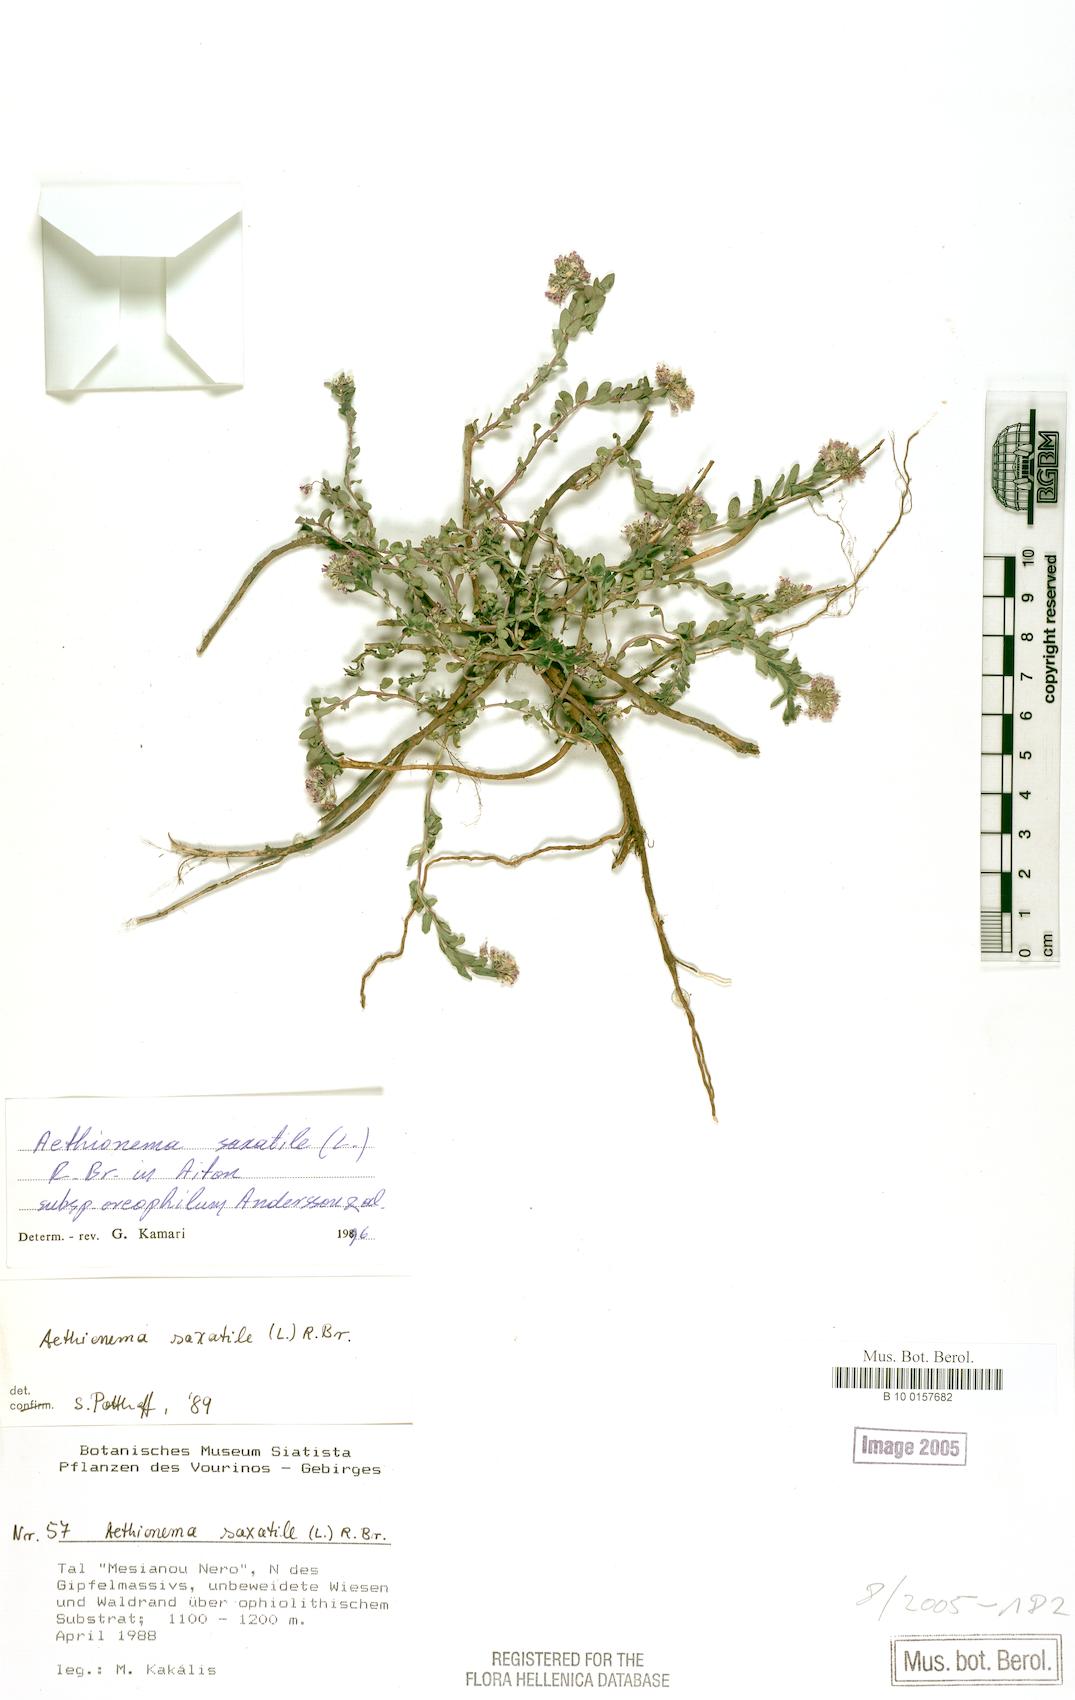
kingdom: Plantae
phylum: Tracheophyta
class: Magnoliopsida
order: Brassicales
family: Brassicaceae
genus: Aethionema
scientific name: Aethionema saxatile
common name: Burnt candytuft
